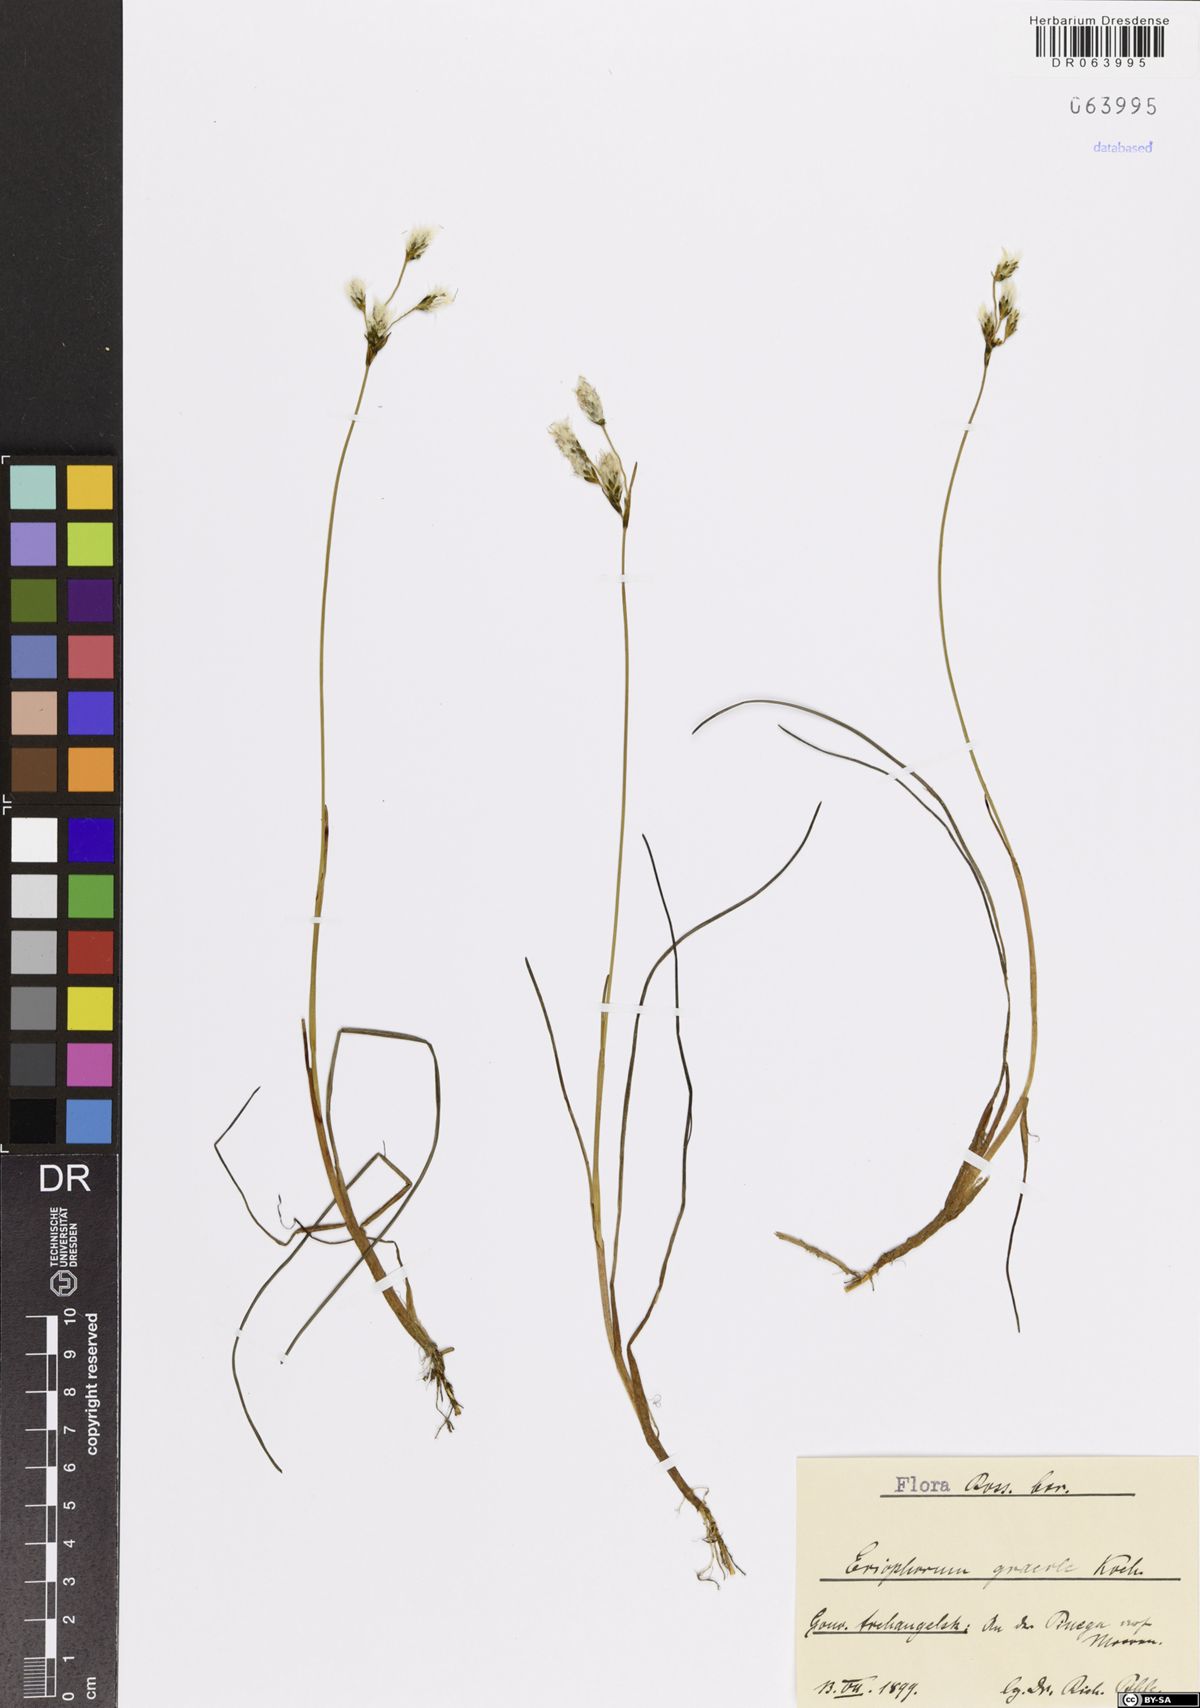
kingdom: Plantae
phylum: Tracheophyta
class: Liliopsida
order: Poales
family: Cyperaceae
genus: Eriophorum
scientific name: Eriophorum gracile
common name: Slender cottongrass
